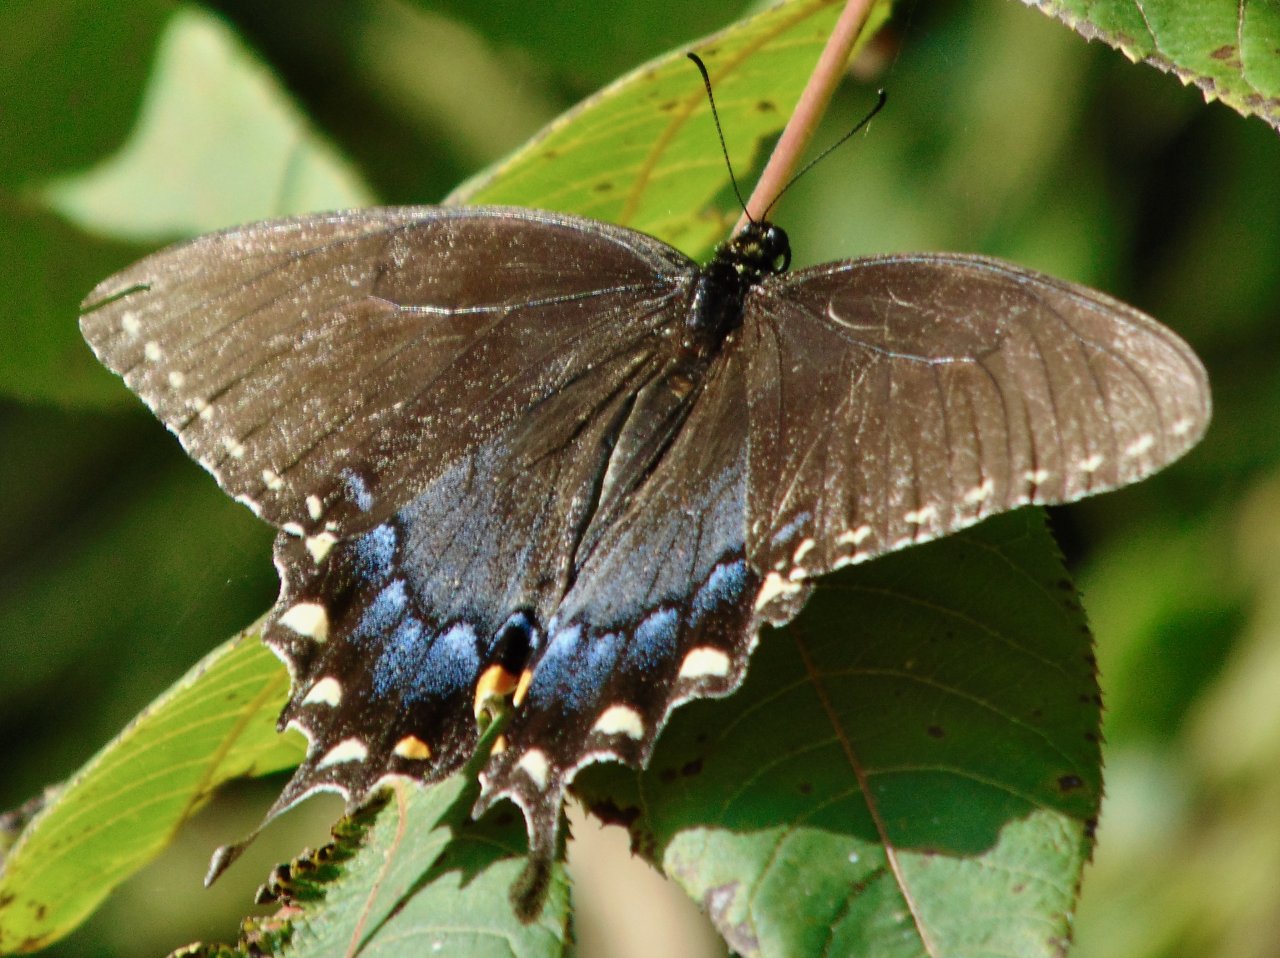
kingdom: Animalia
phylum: Arthropoda
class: Insecta
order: Lepidoptera
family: Papilionidae
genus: Pterourus
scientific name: Pterourus glaucus
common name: Eastern Tiger Swallowtail
